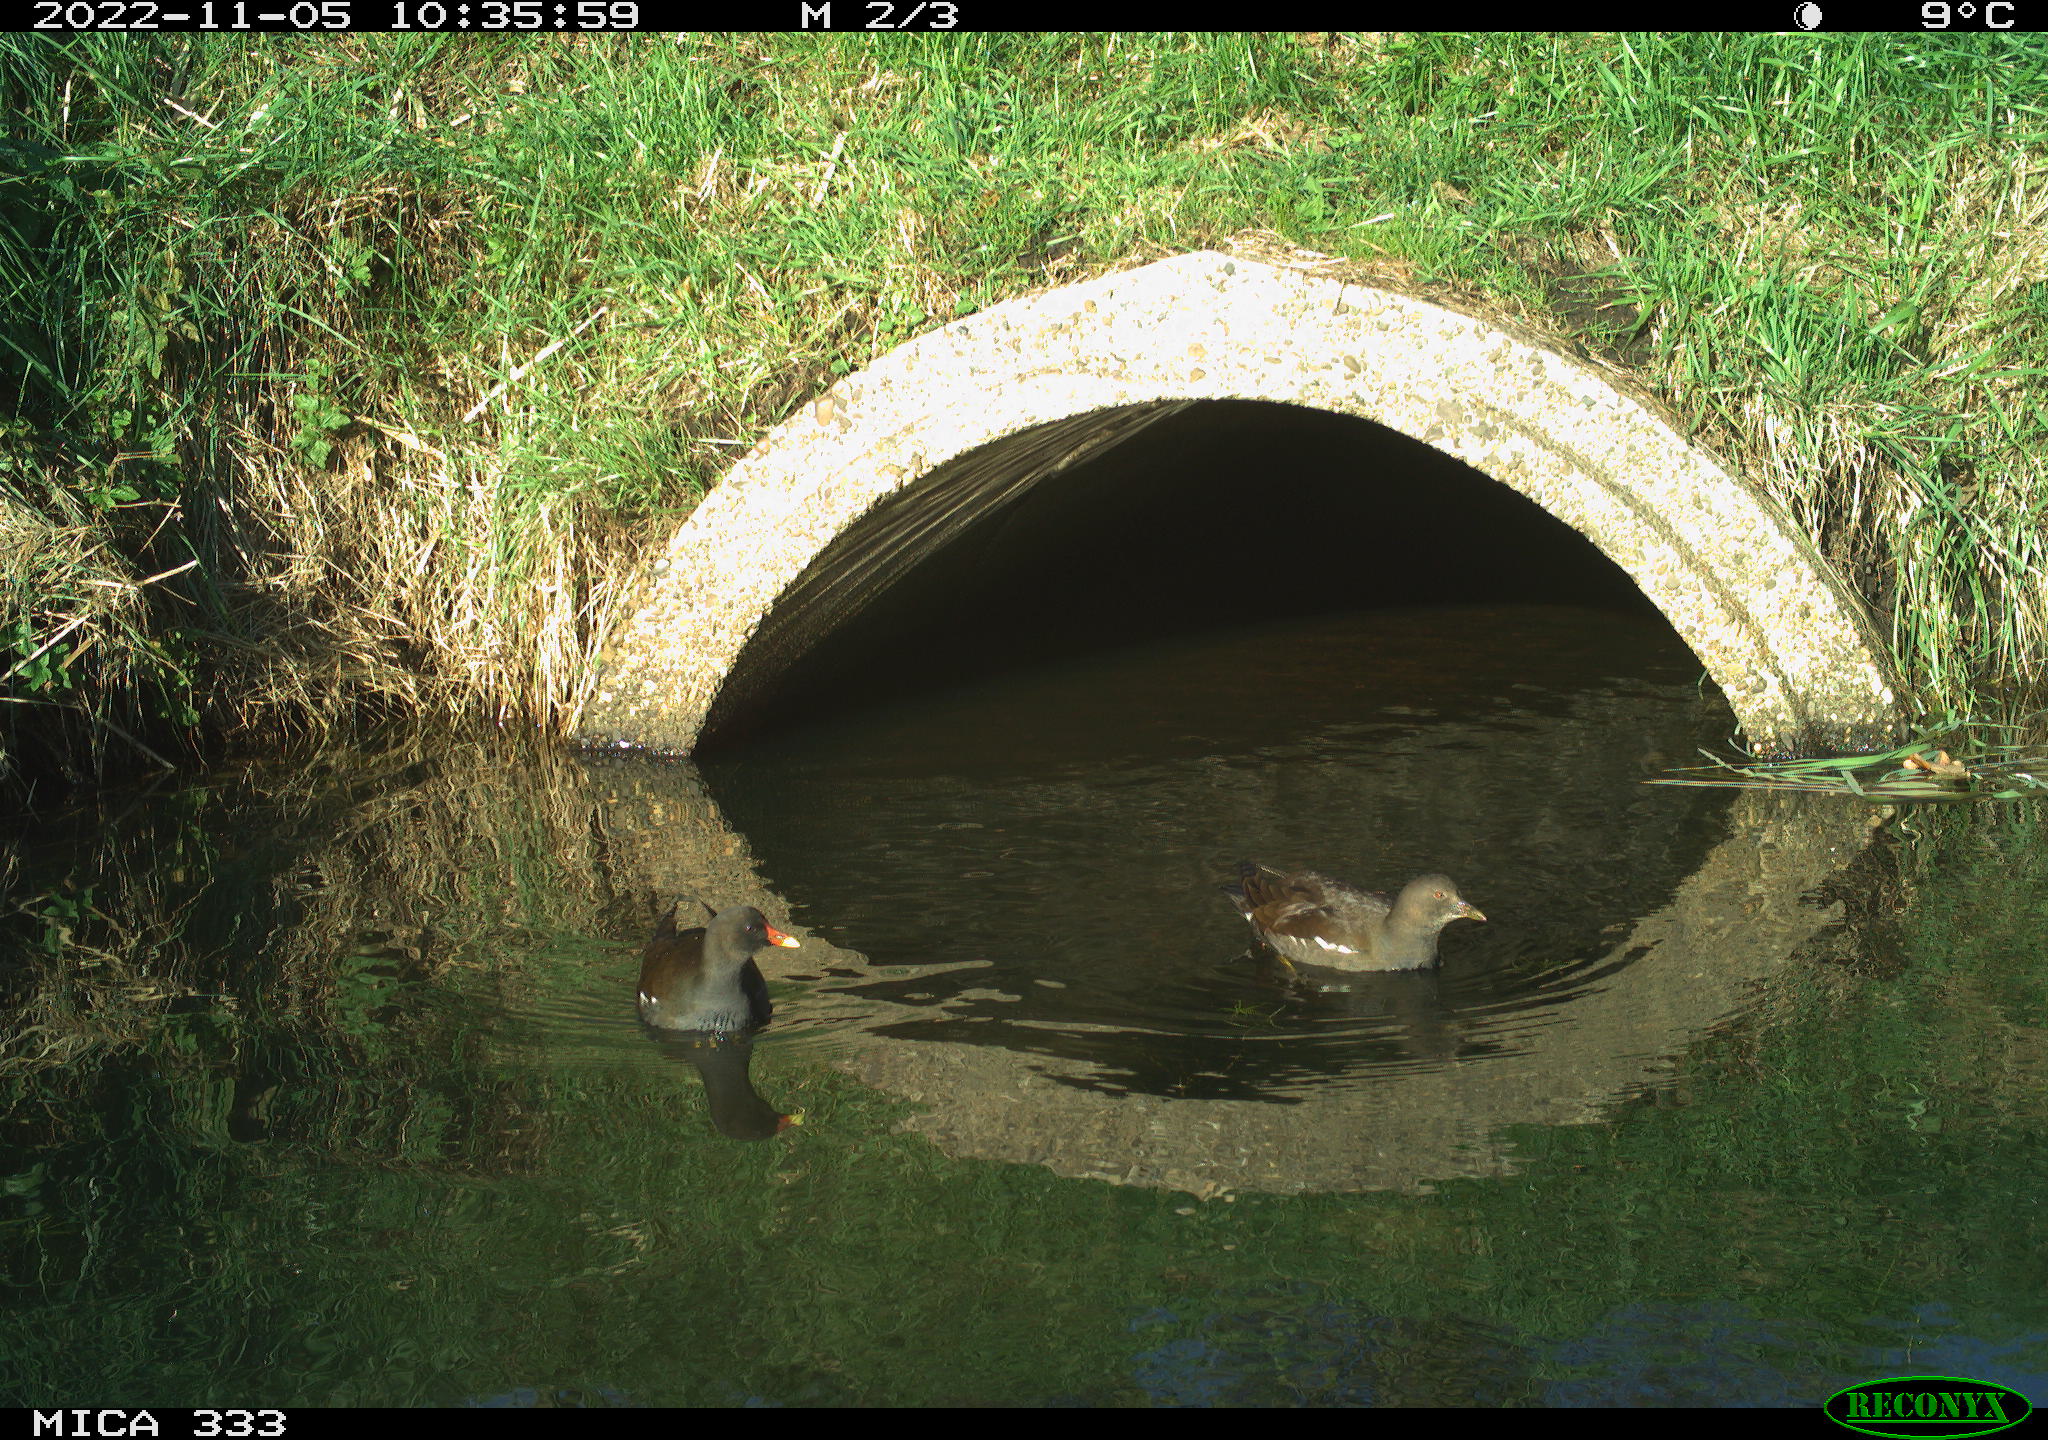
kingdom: Animalia
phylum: Chordata
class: Aves
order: Gruiformes
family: Rallidae
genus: Gallinula
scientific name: Gallinula chloropus
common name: Common moorhen
